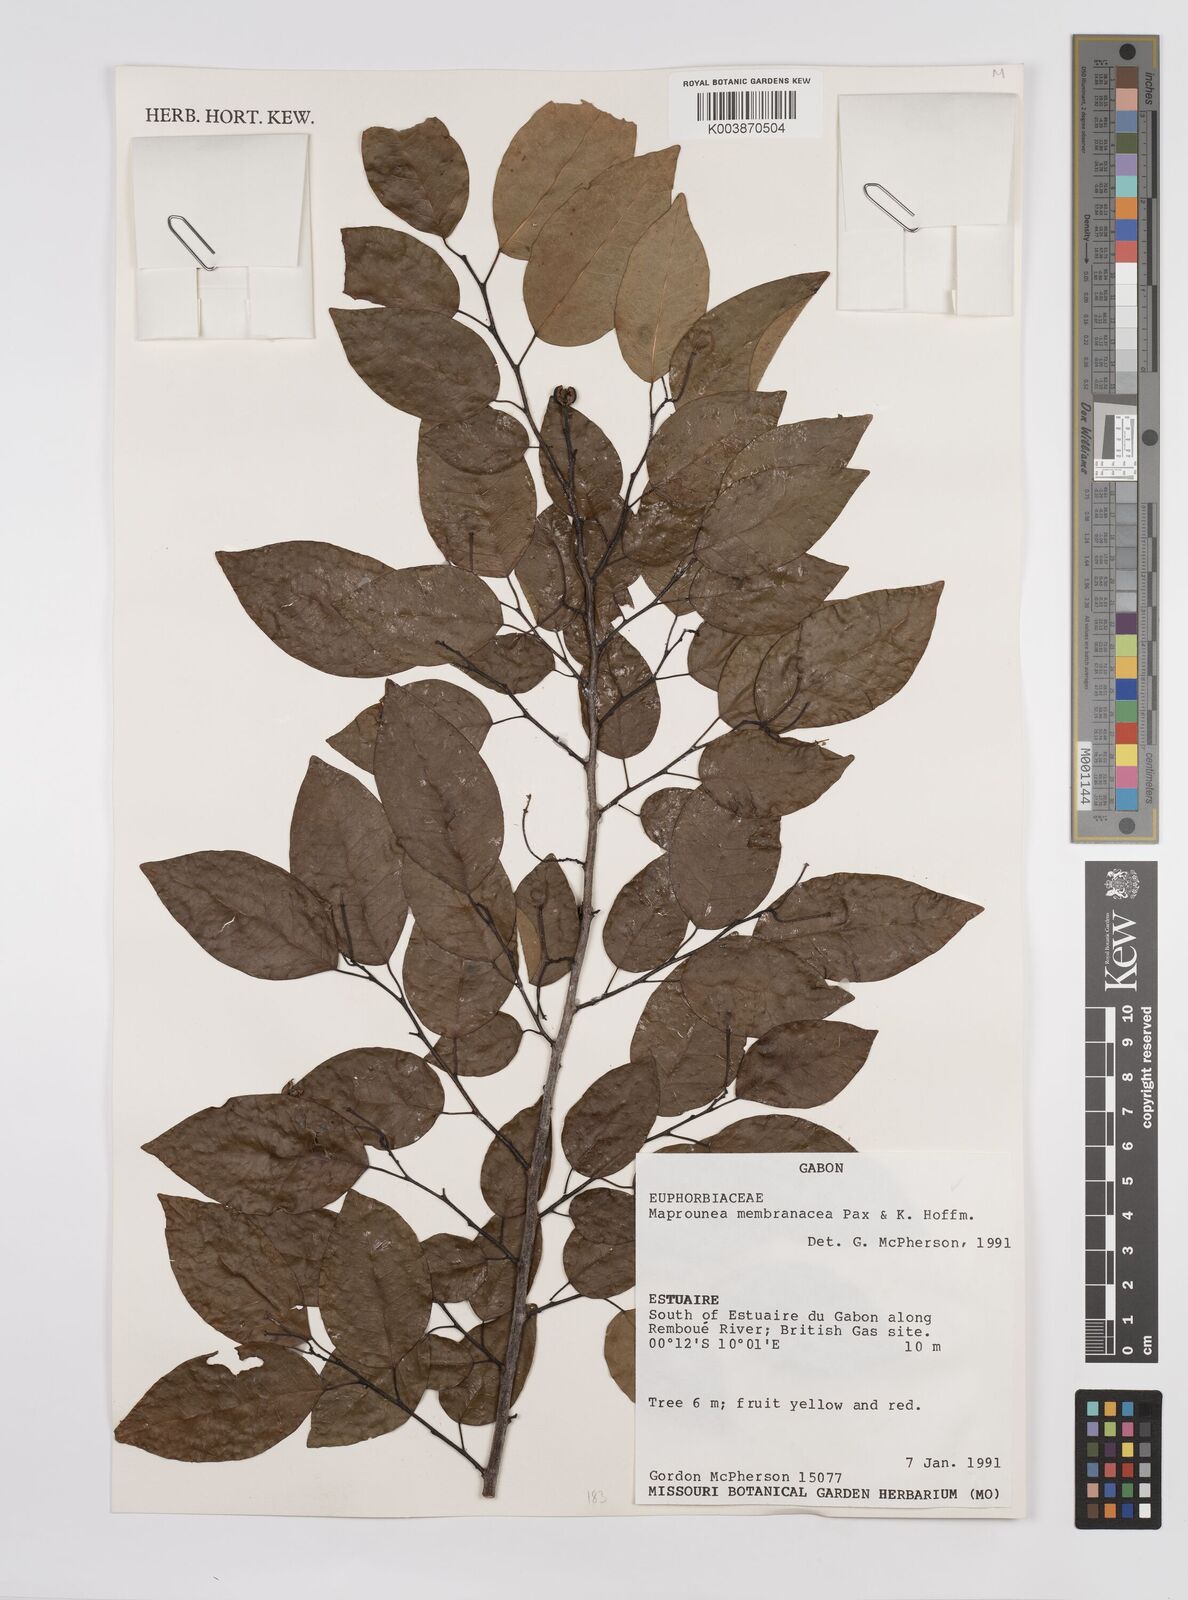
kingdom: Plantae
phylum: Tracheophyta
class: Magnoliopsida
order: Malpighiales
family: Euphorbiaceae
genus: Maprounea
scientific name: Maprounea membranacea
